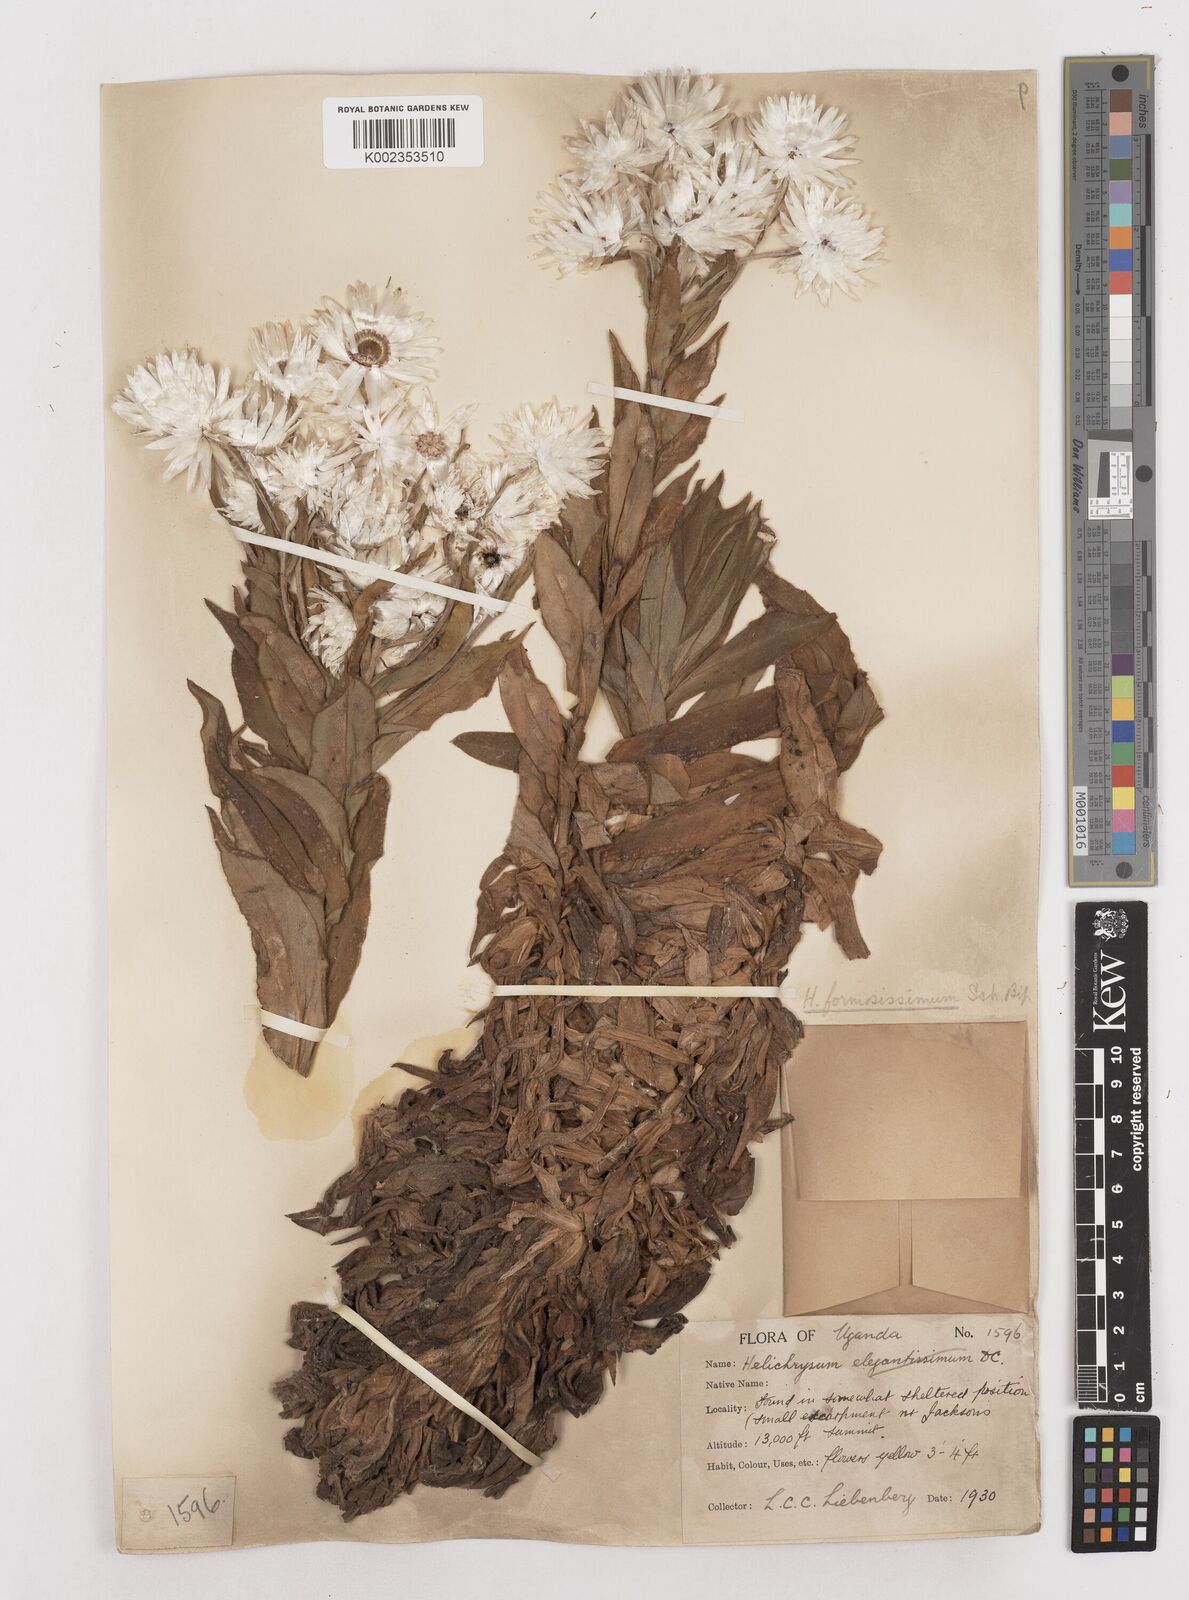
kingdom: Plantae
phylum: Tracheophyta
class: Magnoliopsida
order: Asterales
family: Asteraceae
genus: Helichrysum
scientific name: Helichrysum formosissimum
